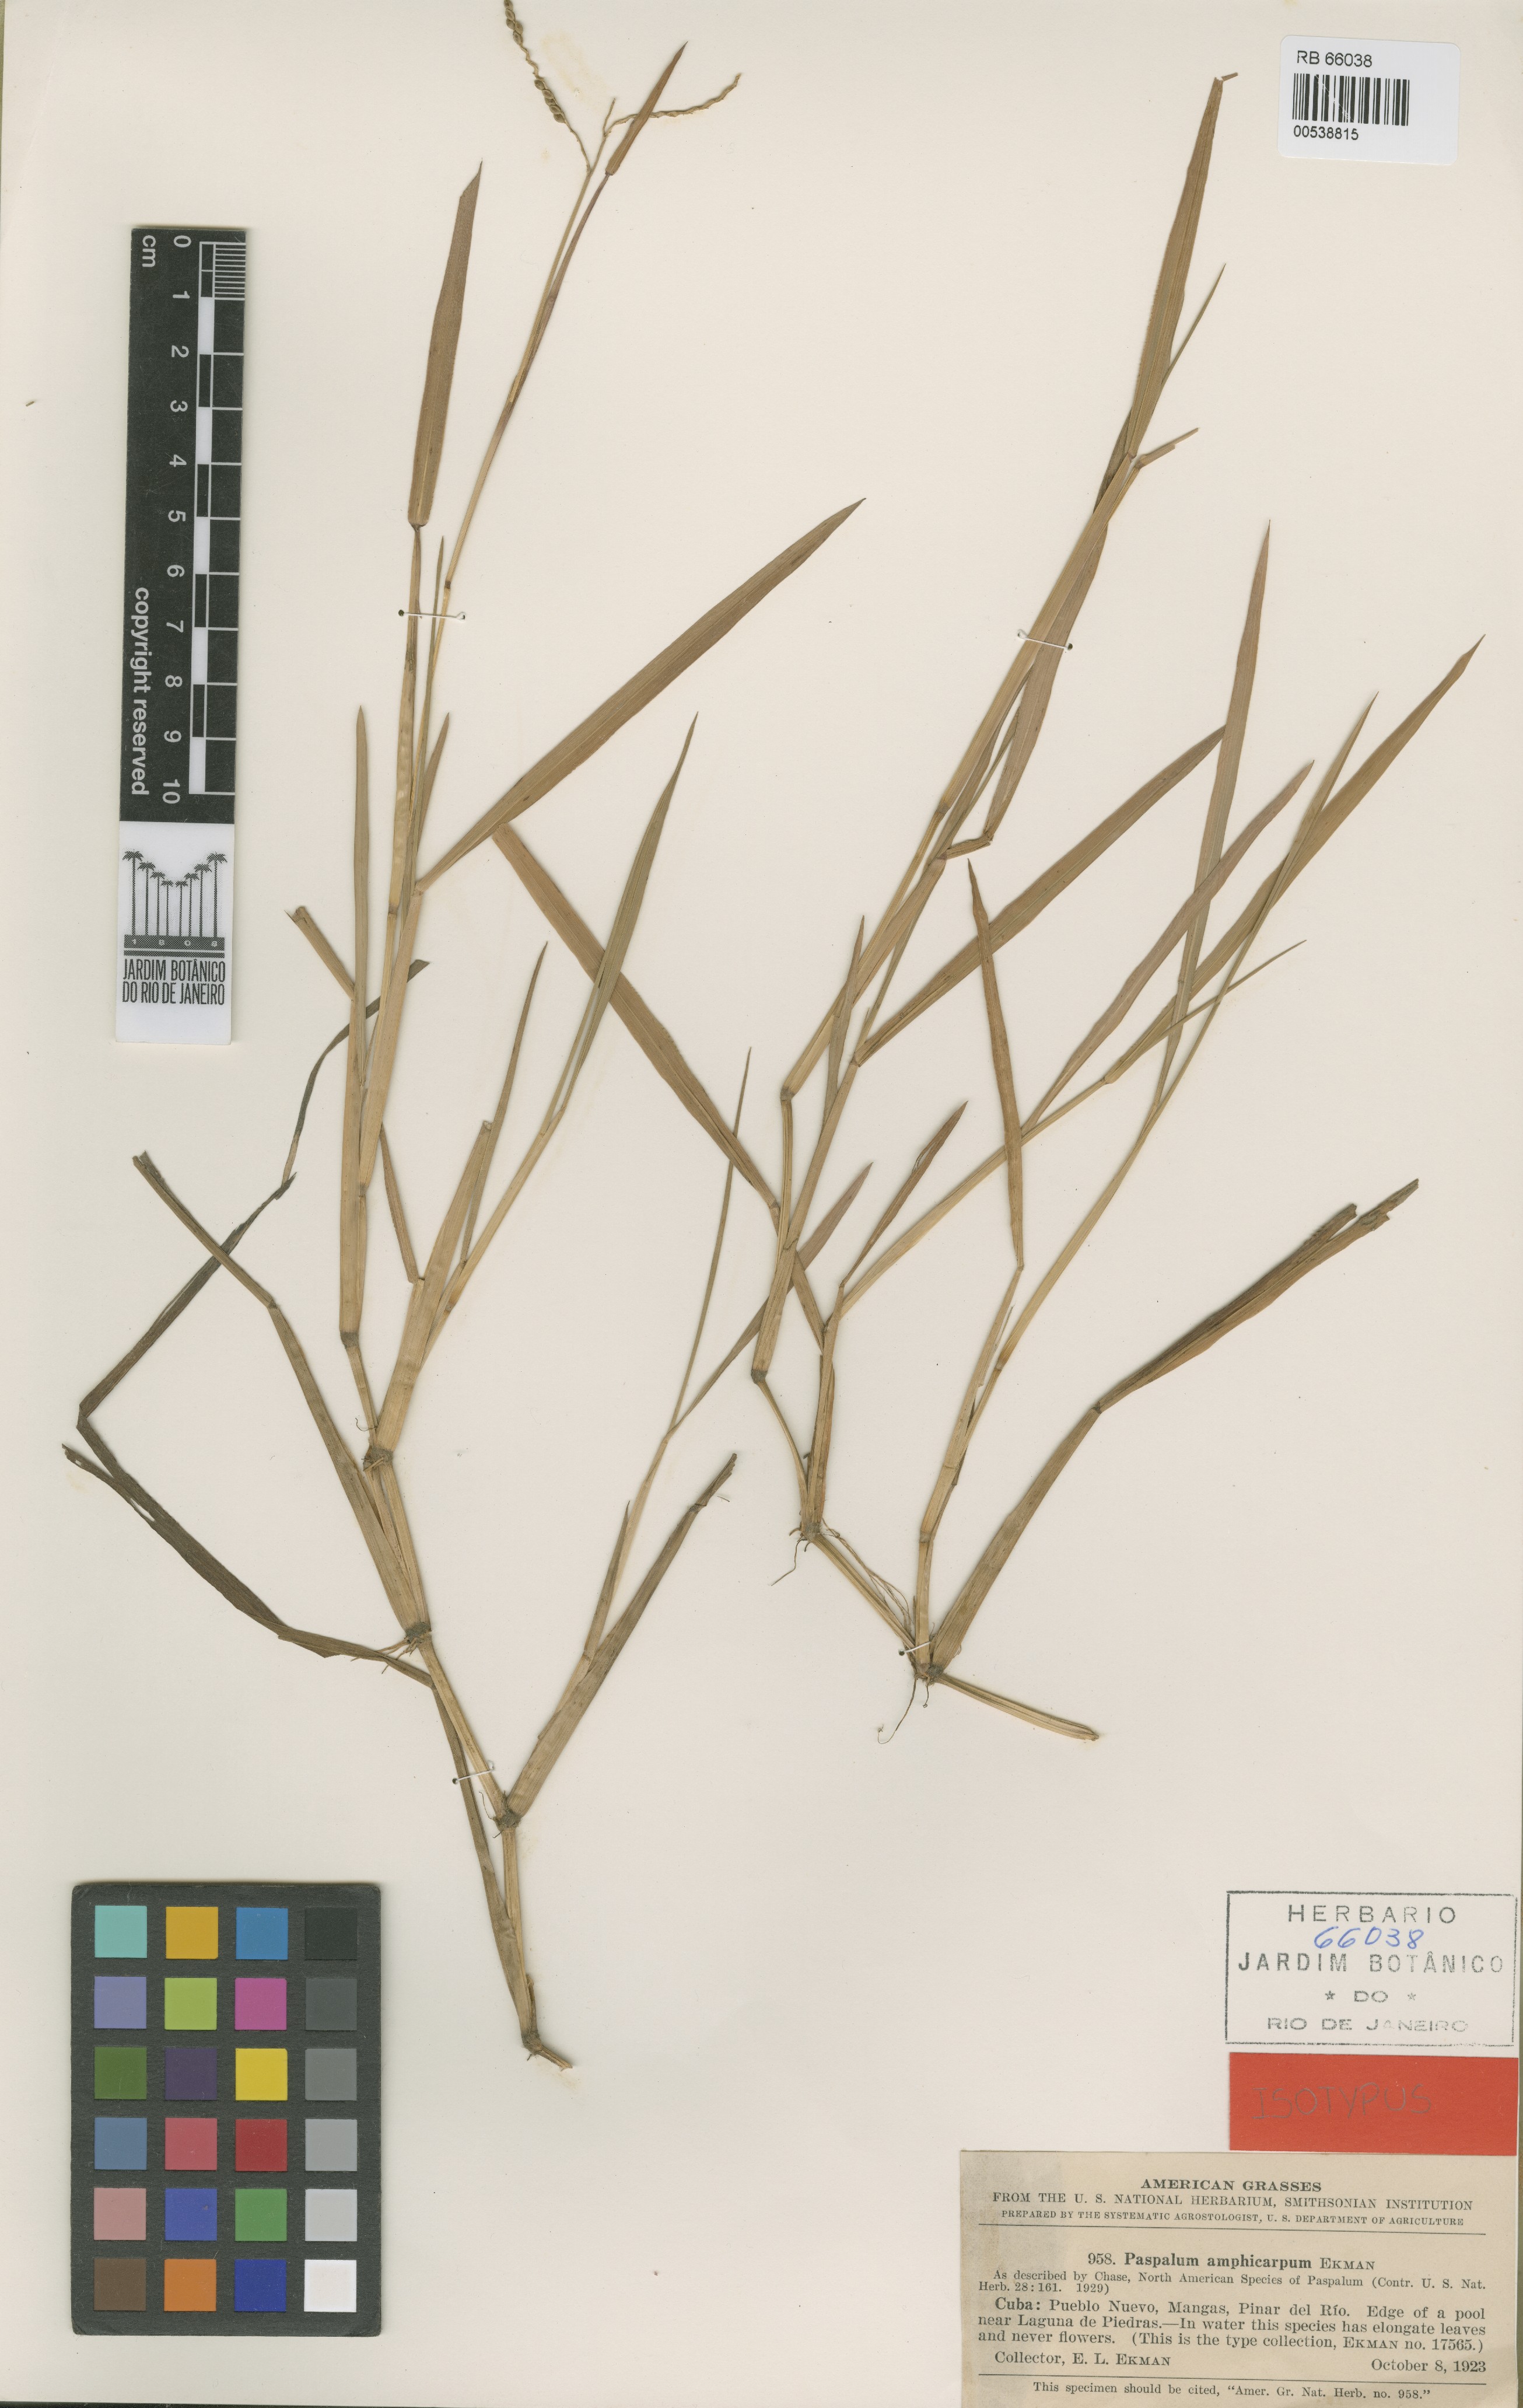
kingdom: Plantae
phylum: Tracheophyta
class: Liliopsida
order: Poales
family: Poaceae
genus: Paspalum
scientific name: Paspalum amphicarpum
